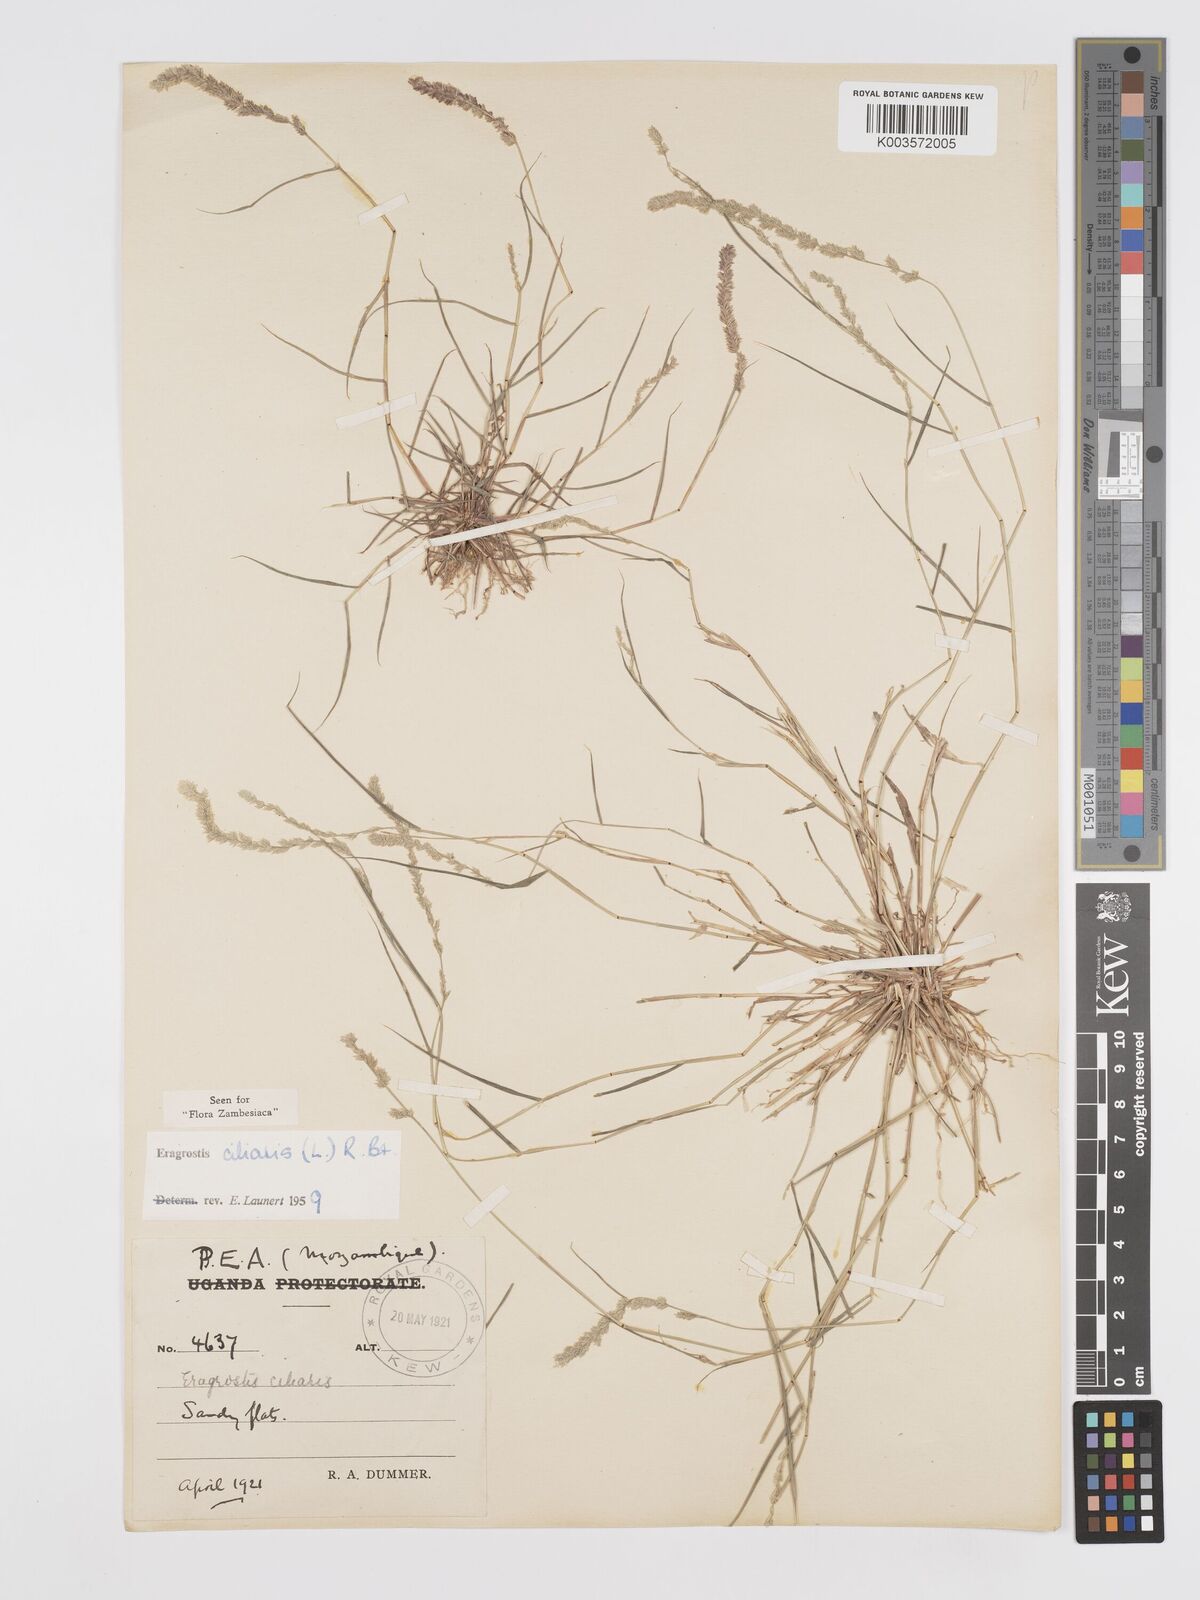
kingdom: Plantae
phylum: Tracheophyta
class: Liliopsida
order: Poales
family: Poaceae
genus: Eragrostis
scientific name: Eragrostis ciliaris
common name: Gophertail lovegrass
